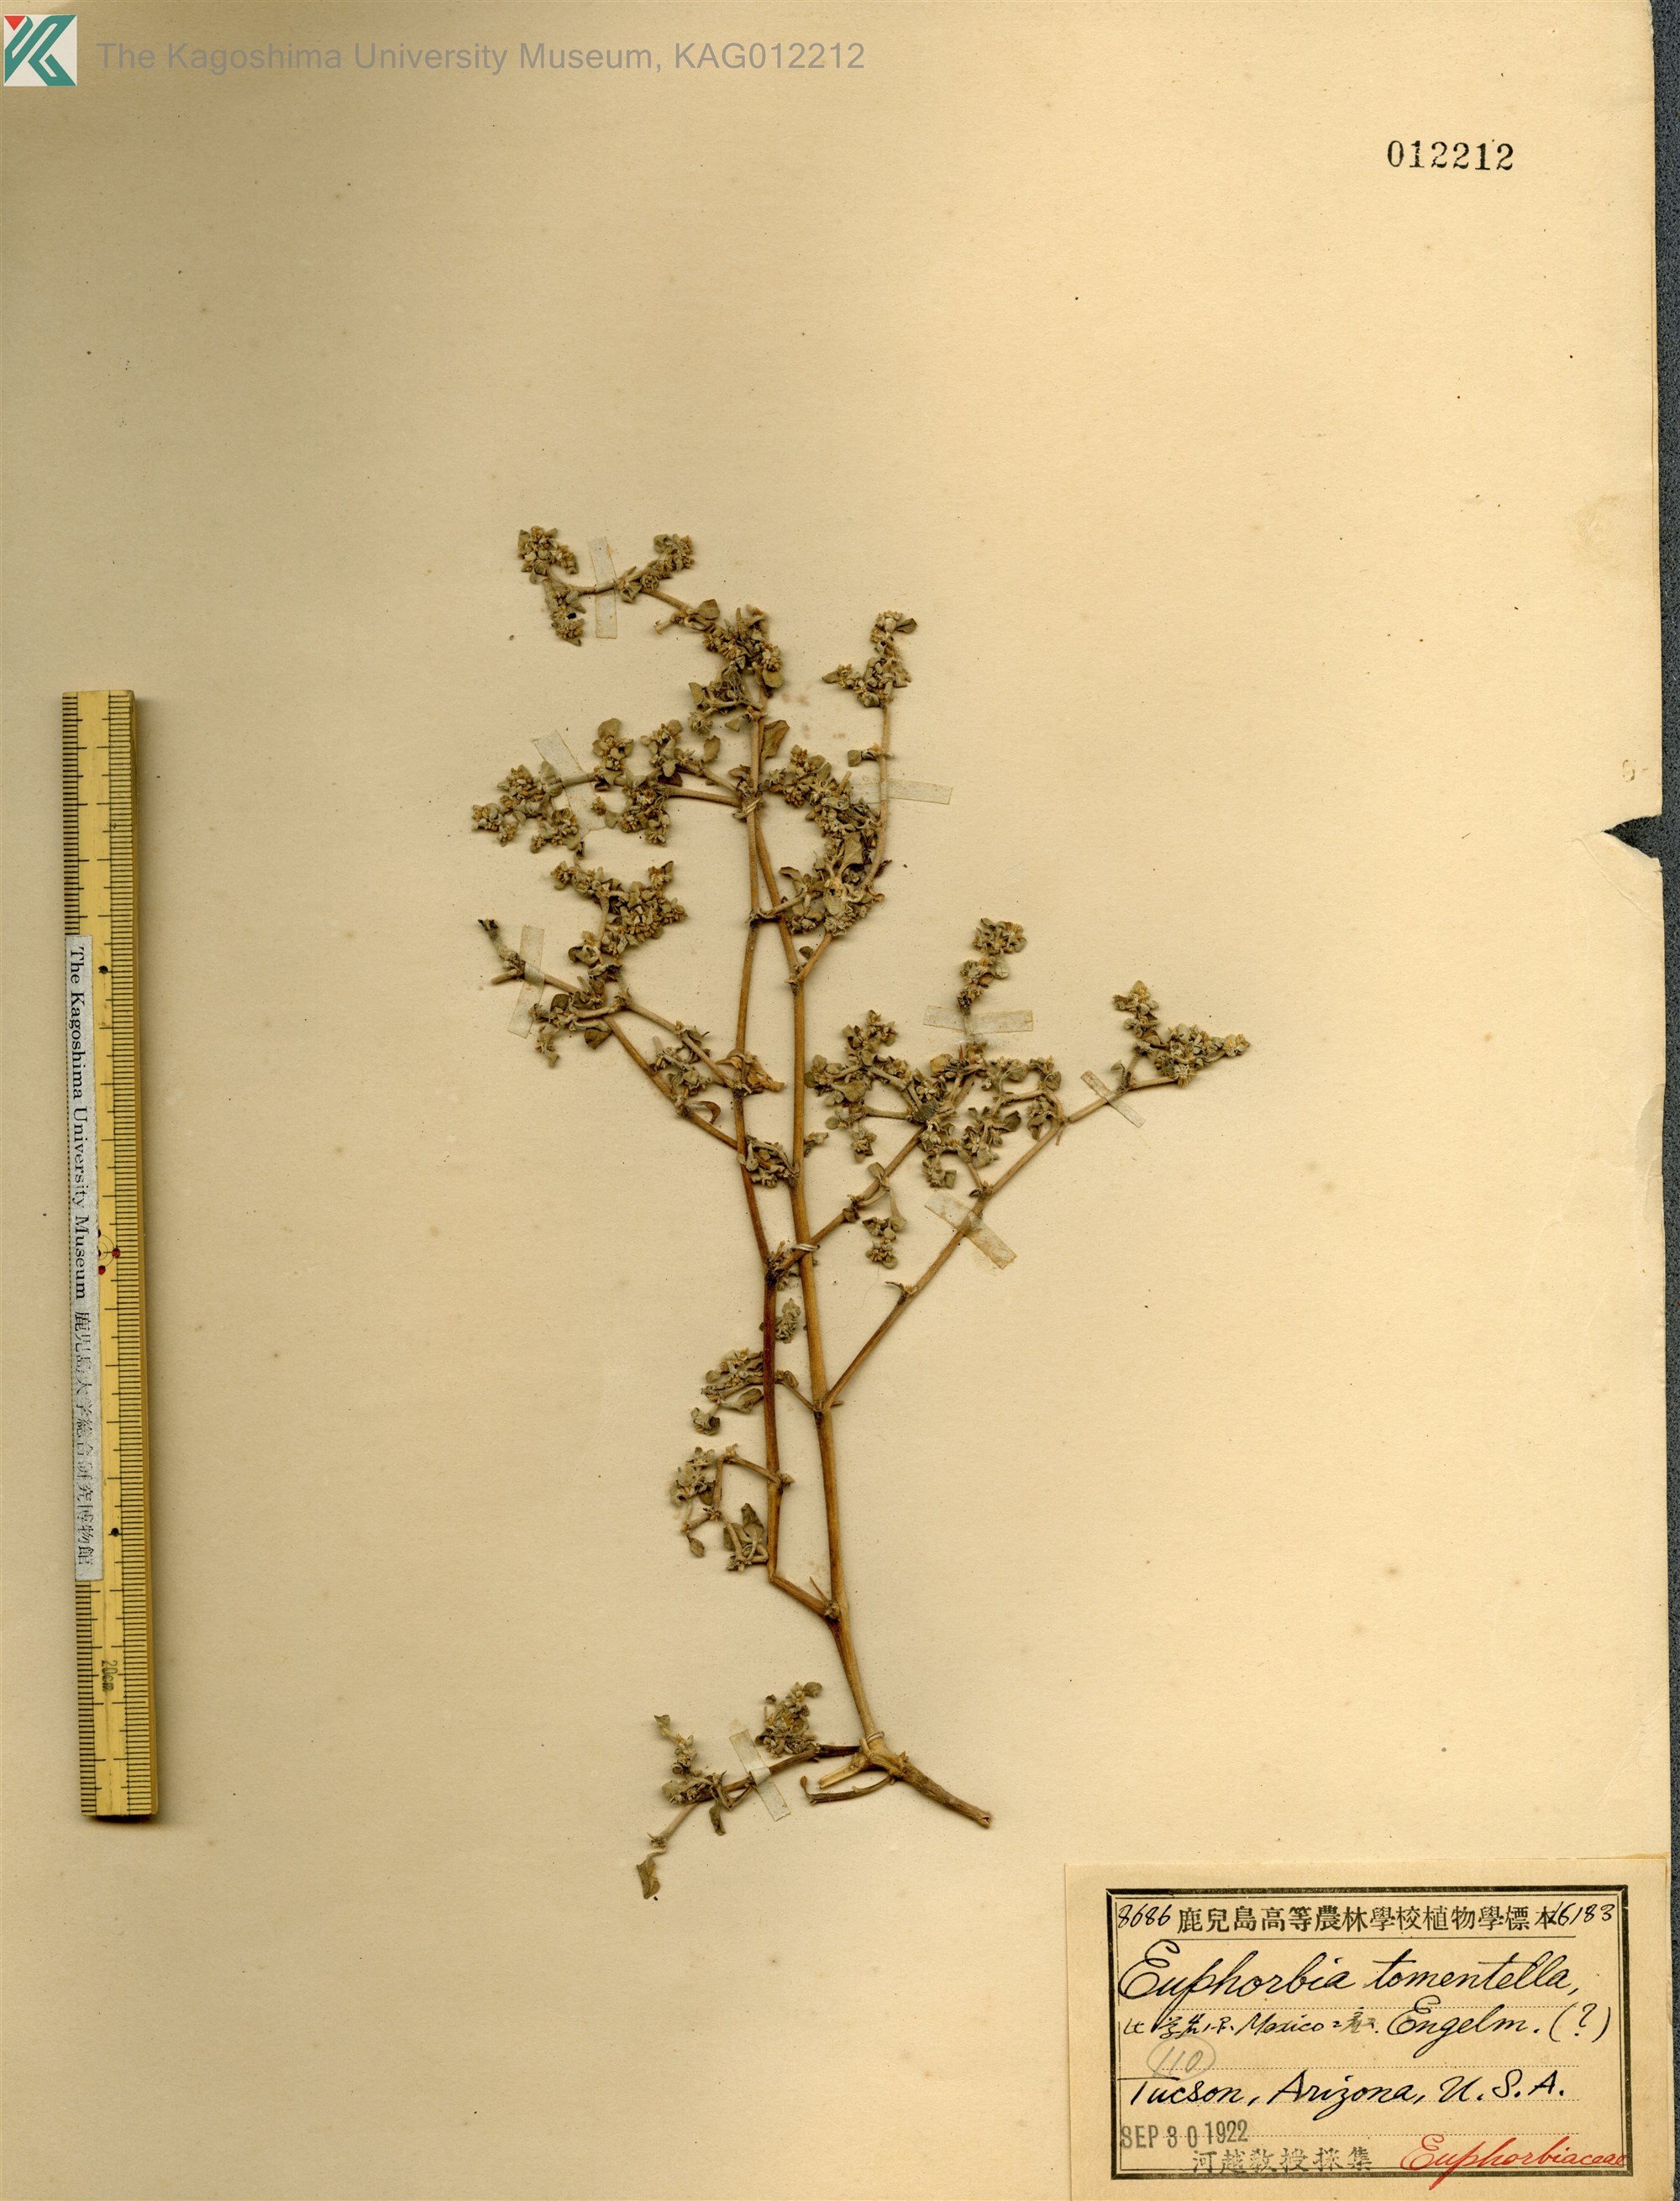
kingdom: Plantae
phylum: Tracheophyta
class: Magnoliopsida
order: Malpighiales
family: Euphorbiaceae
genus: Euphorbia
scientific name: Euphorbia tomentella
